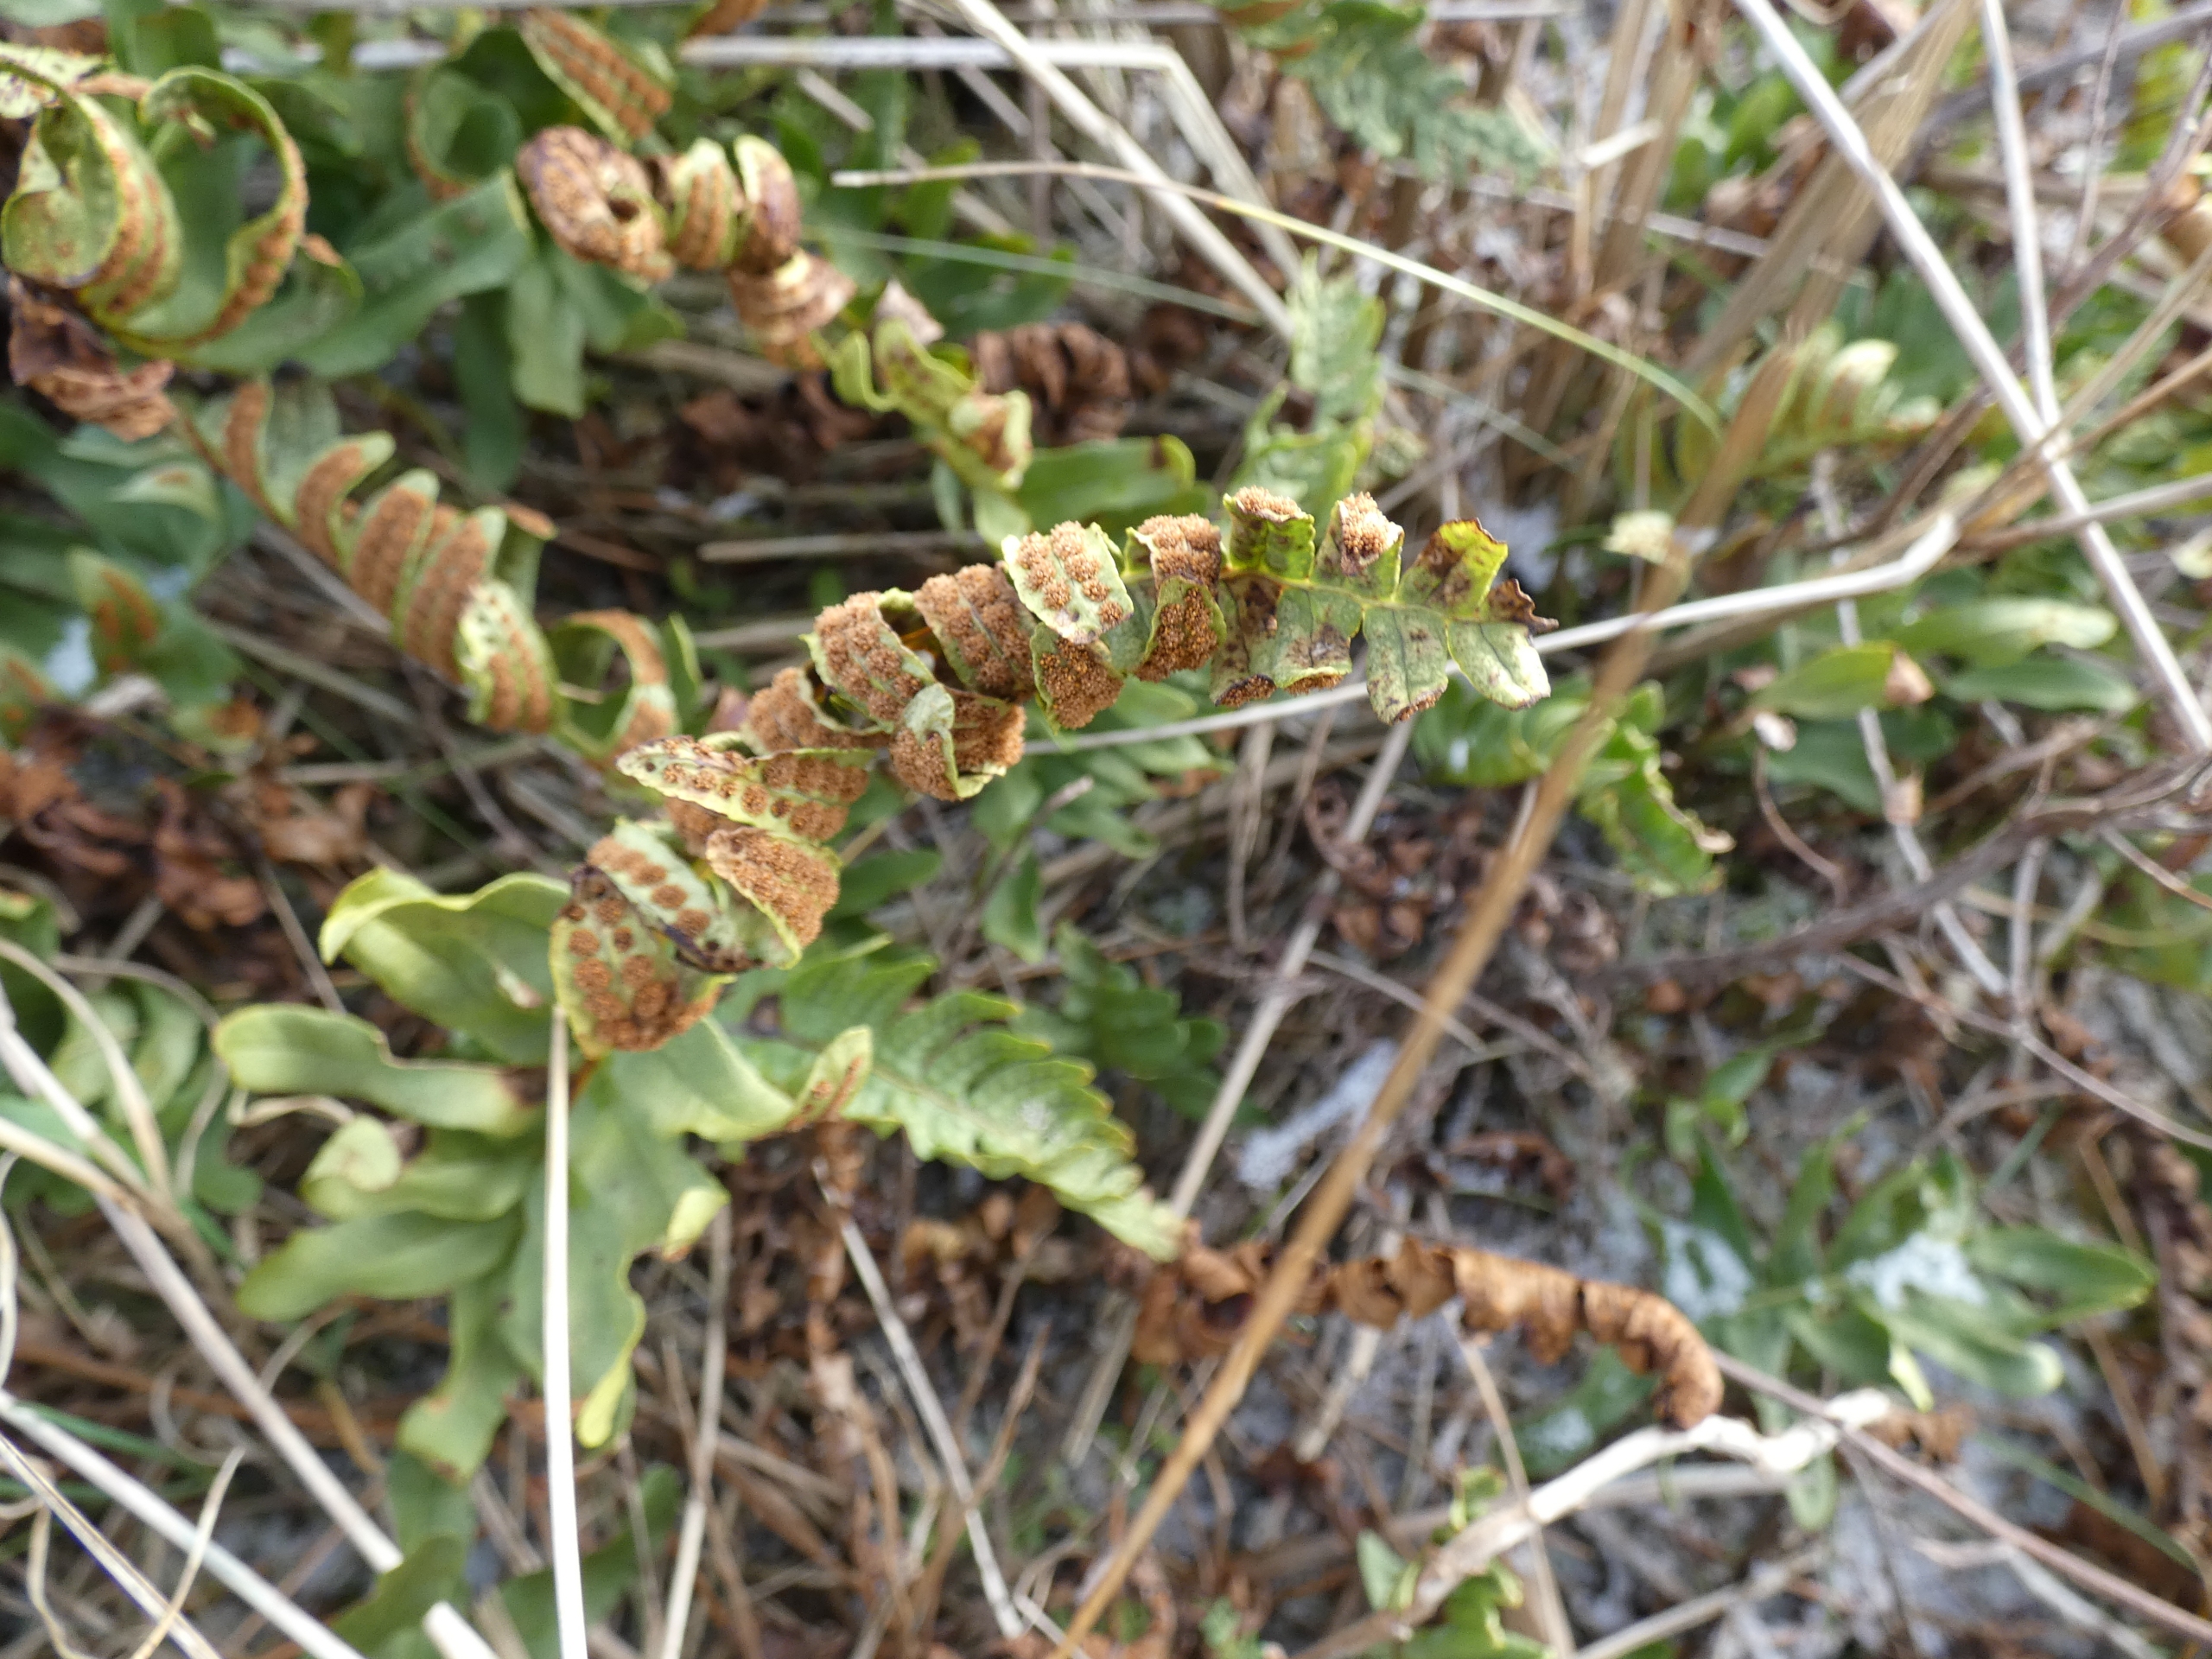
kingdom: Plantae
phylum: Tracheophyta
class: Polypodiopsida
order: Polypodiales
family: Polypodiaceae
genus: Polypodium
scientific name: Polypodium vulgare
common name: Almindelig engelsød
